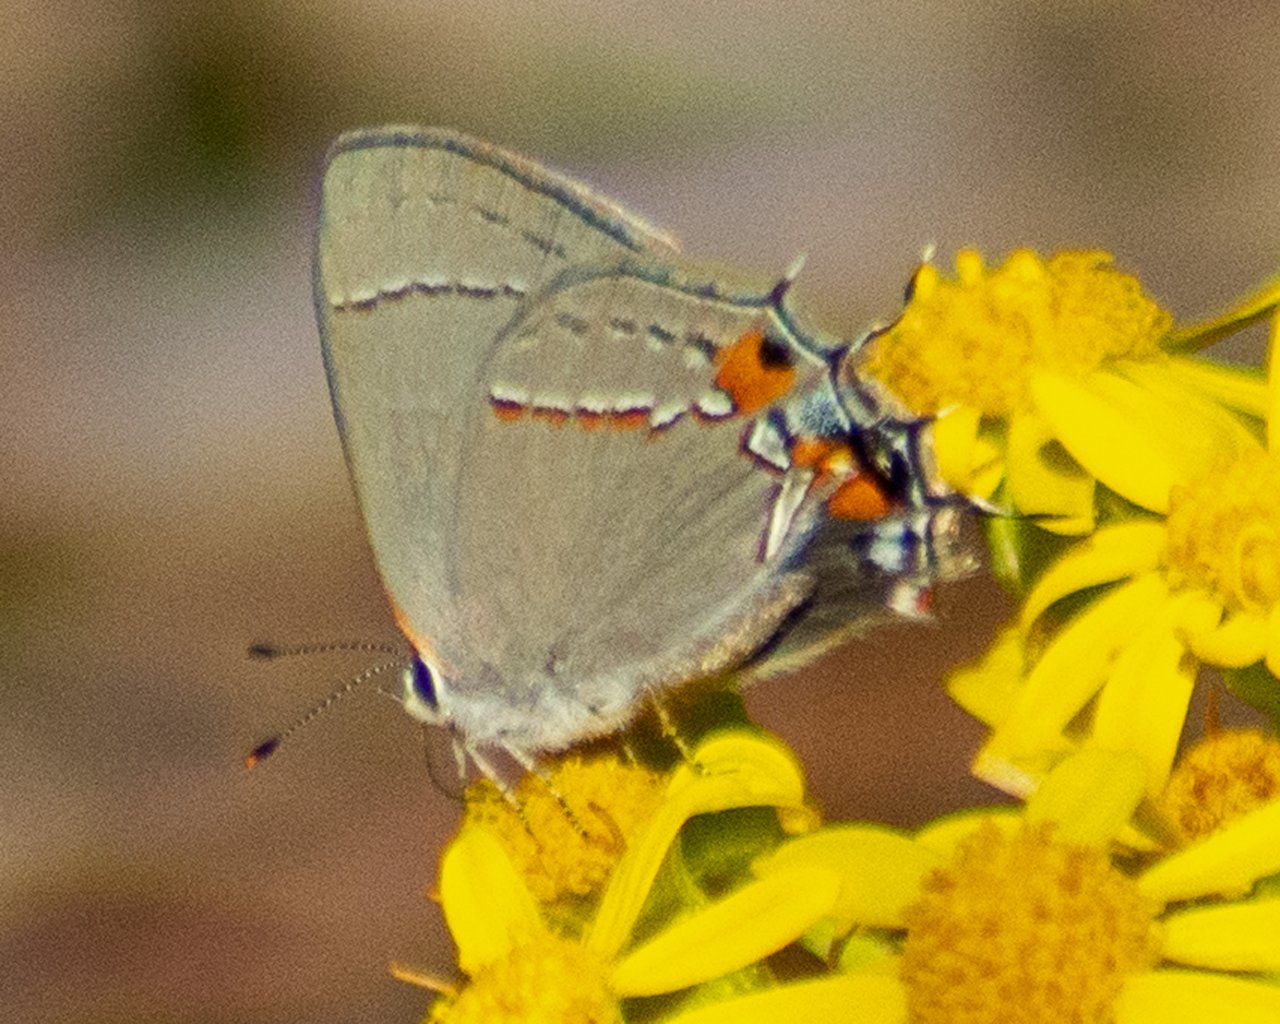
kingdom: Animalia
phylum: Arthropoda
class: Insecta
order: Lepidoptera
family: Lycaenidae
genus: Strymon
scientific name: Strymon melinus
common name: Gray Hairstreak
